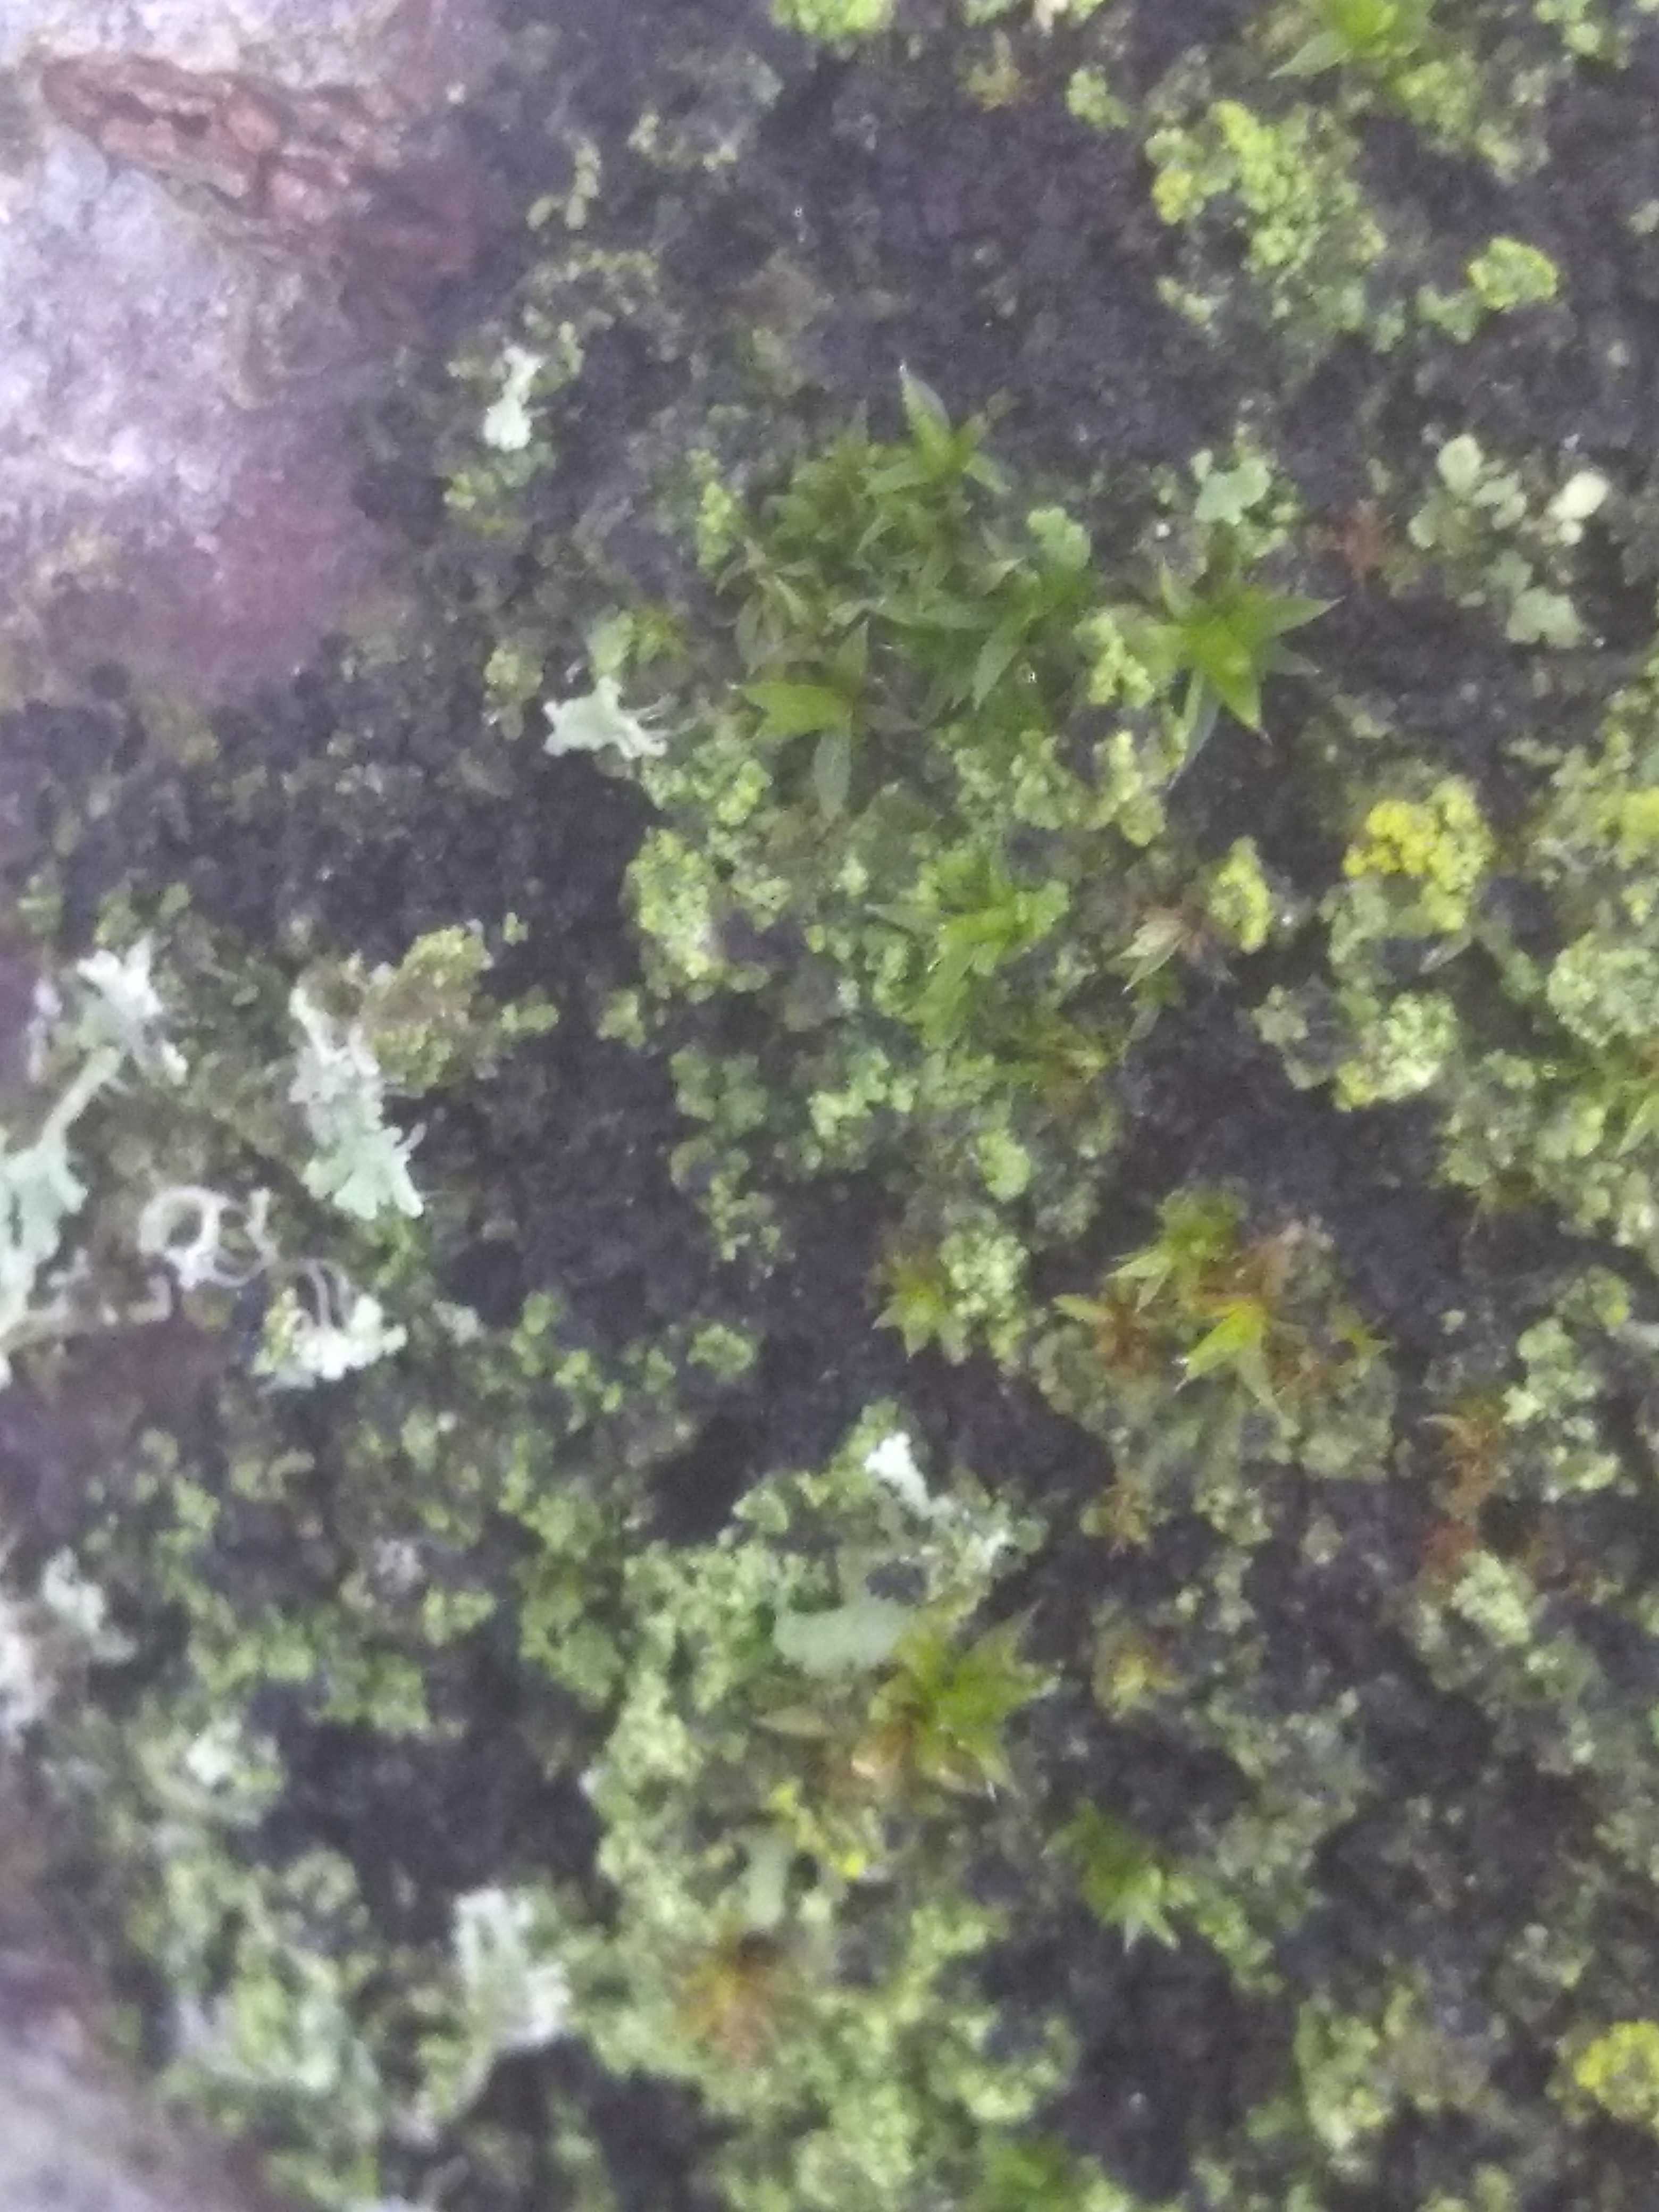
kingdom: Fungi
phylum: Ascomycota
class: Lecanoromycetes
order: Lecanorales
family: Parmeliaceae
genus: Lichen
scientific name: Lichen
